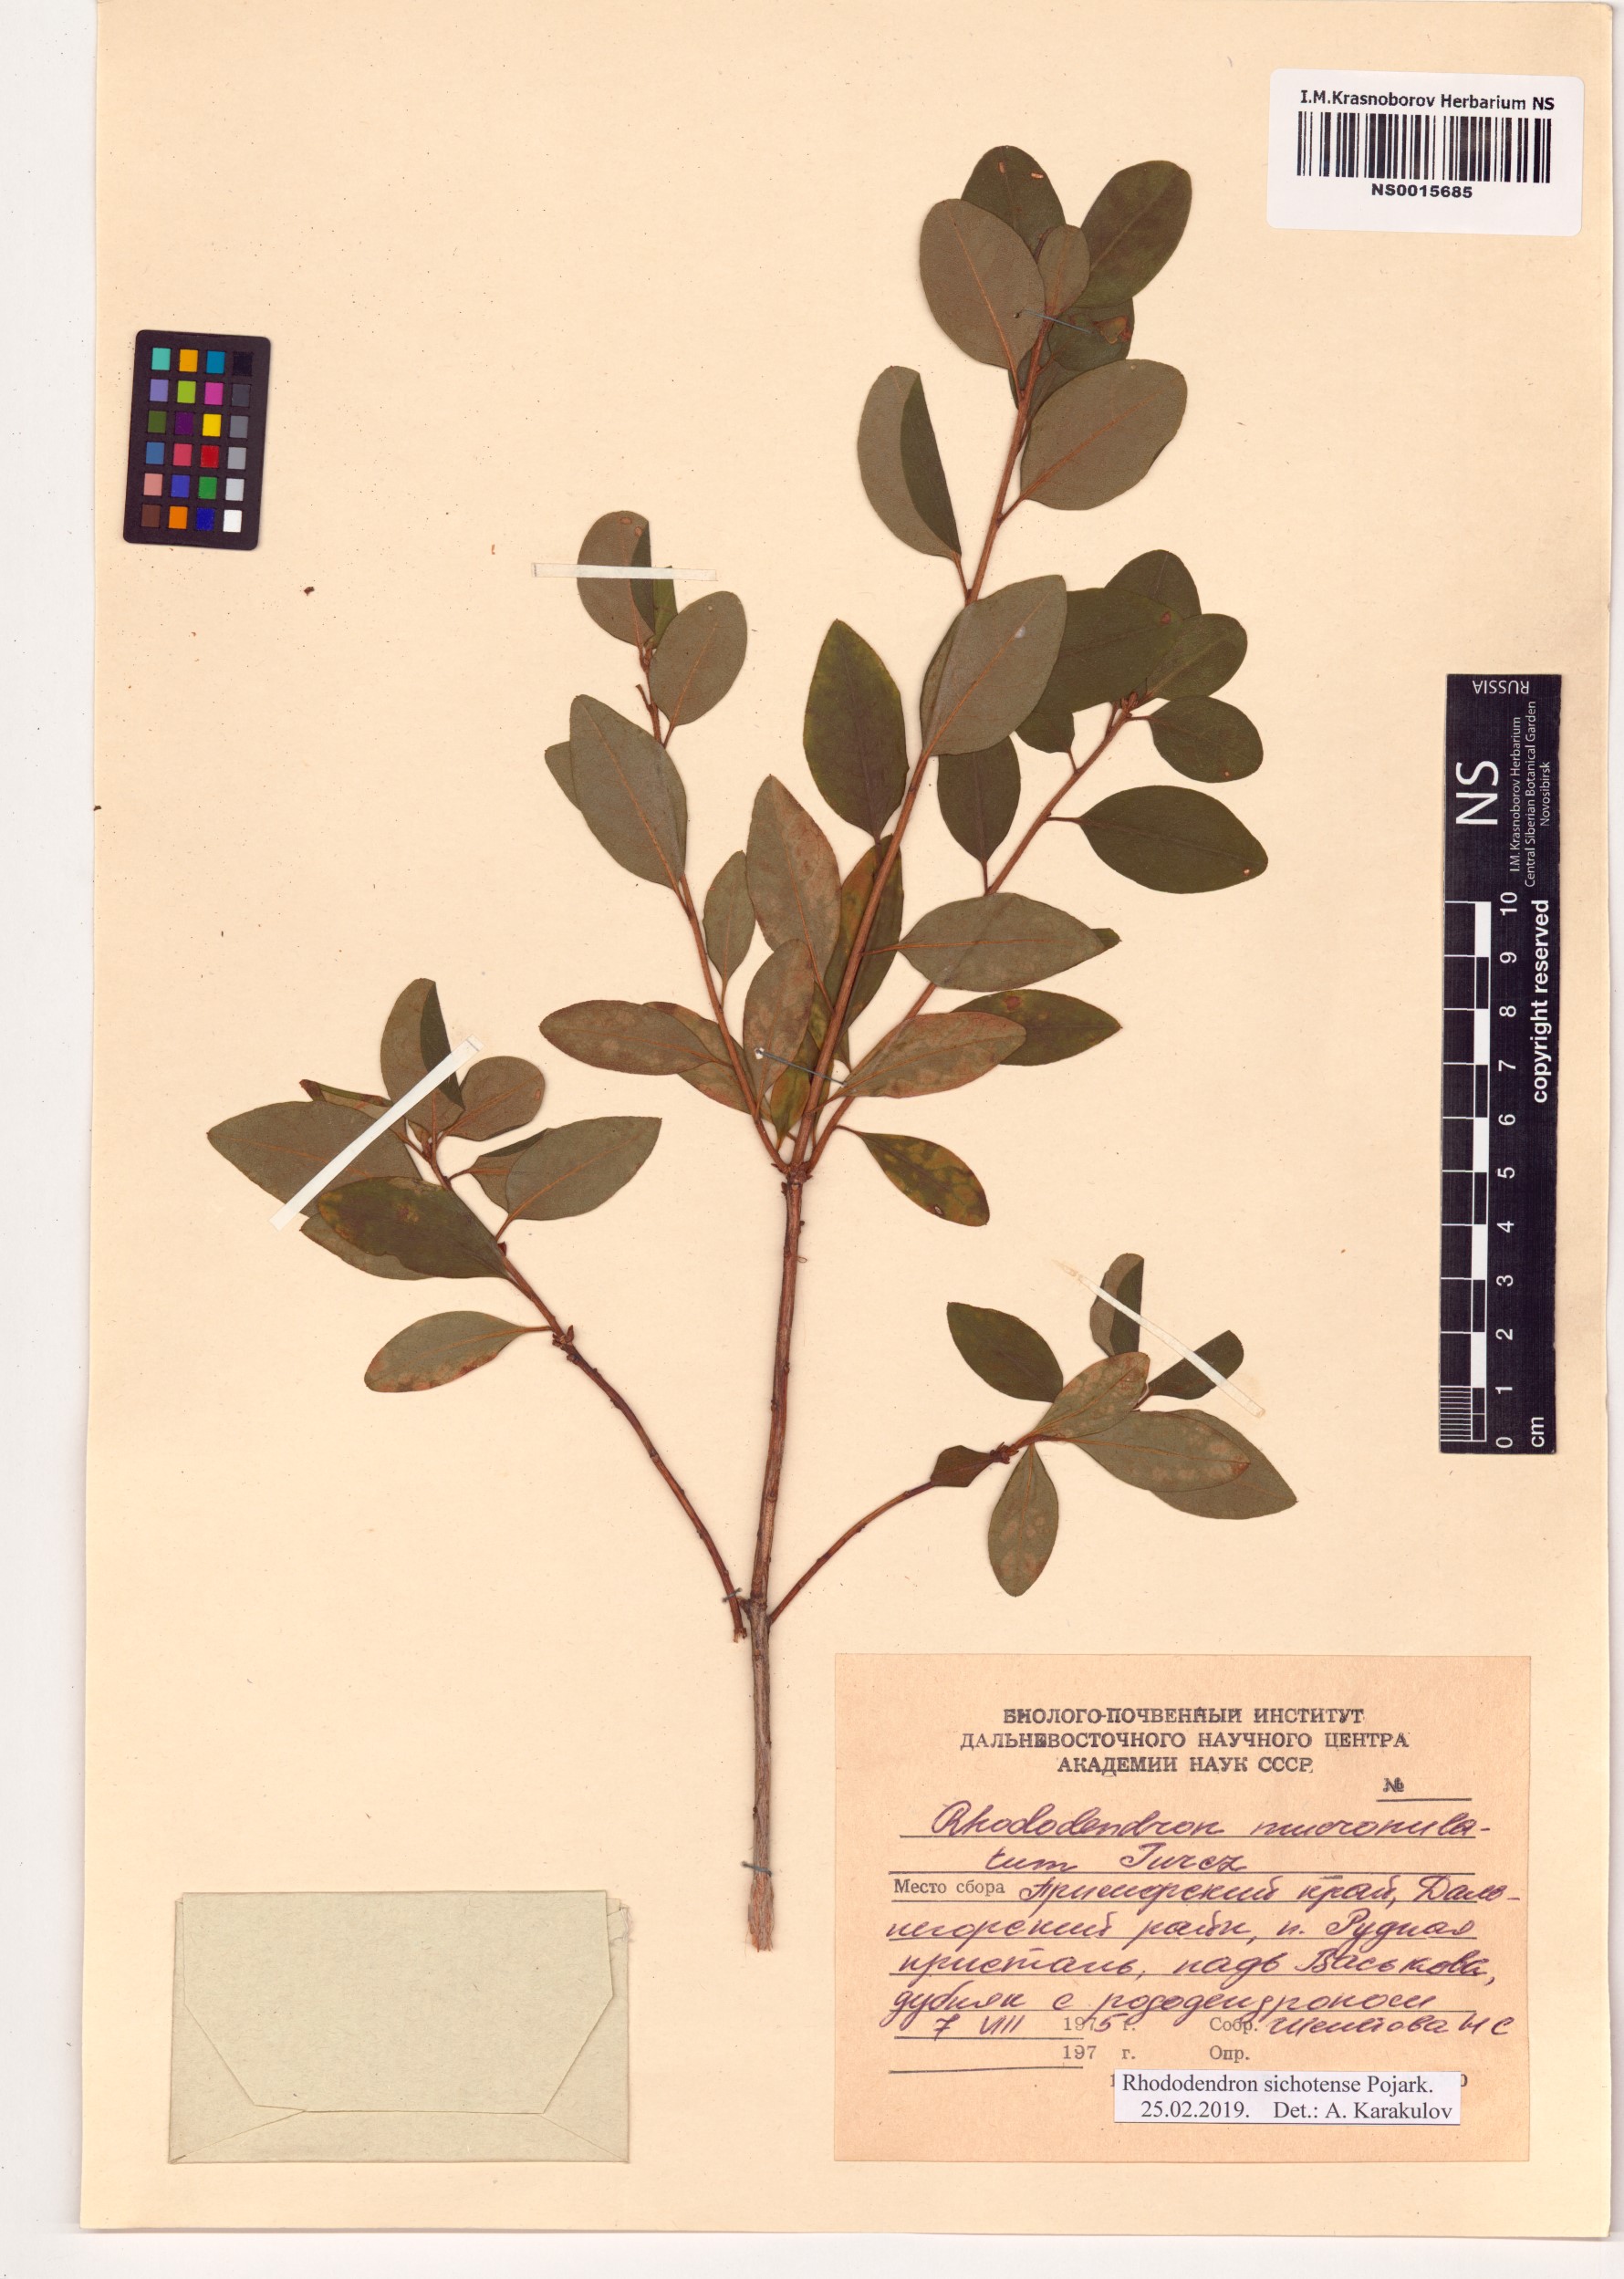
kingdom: Plantae
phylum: Tracheophyta
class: Magnoliopsida
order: Ericales
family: Ericaceae
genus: Rhododendron
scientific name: Rhododendron sichotense
